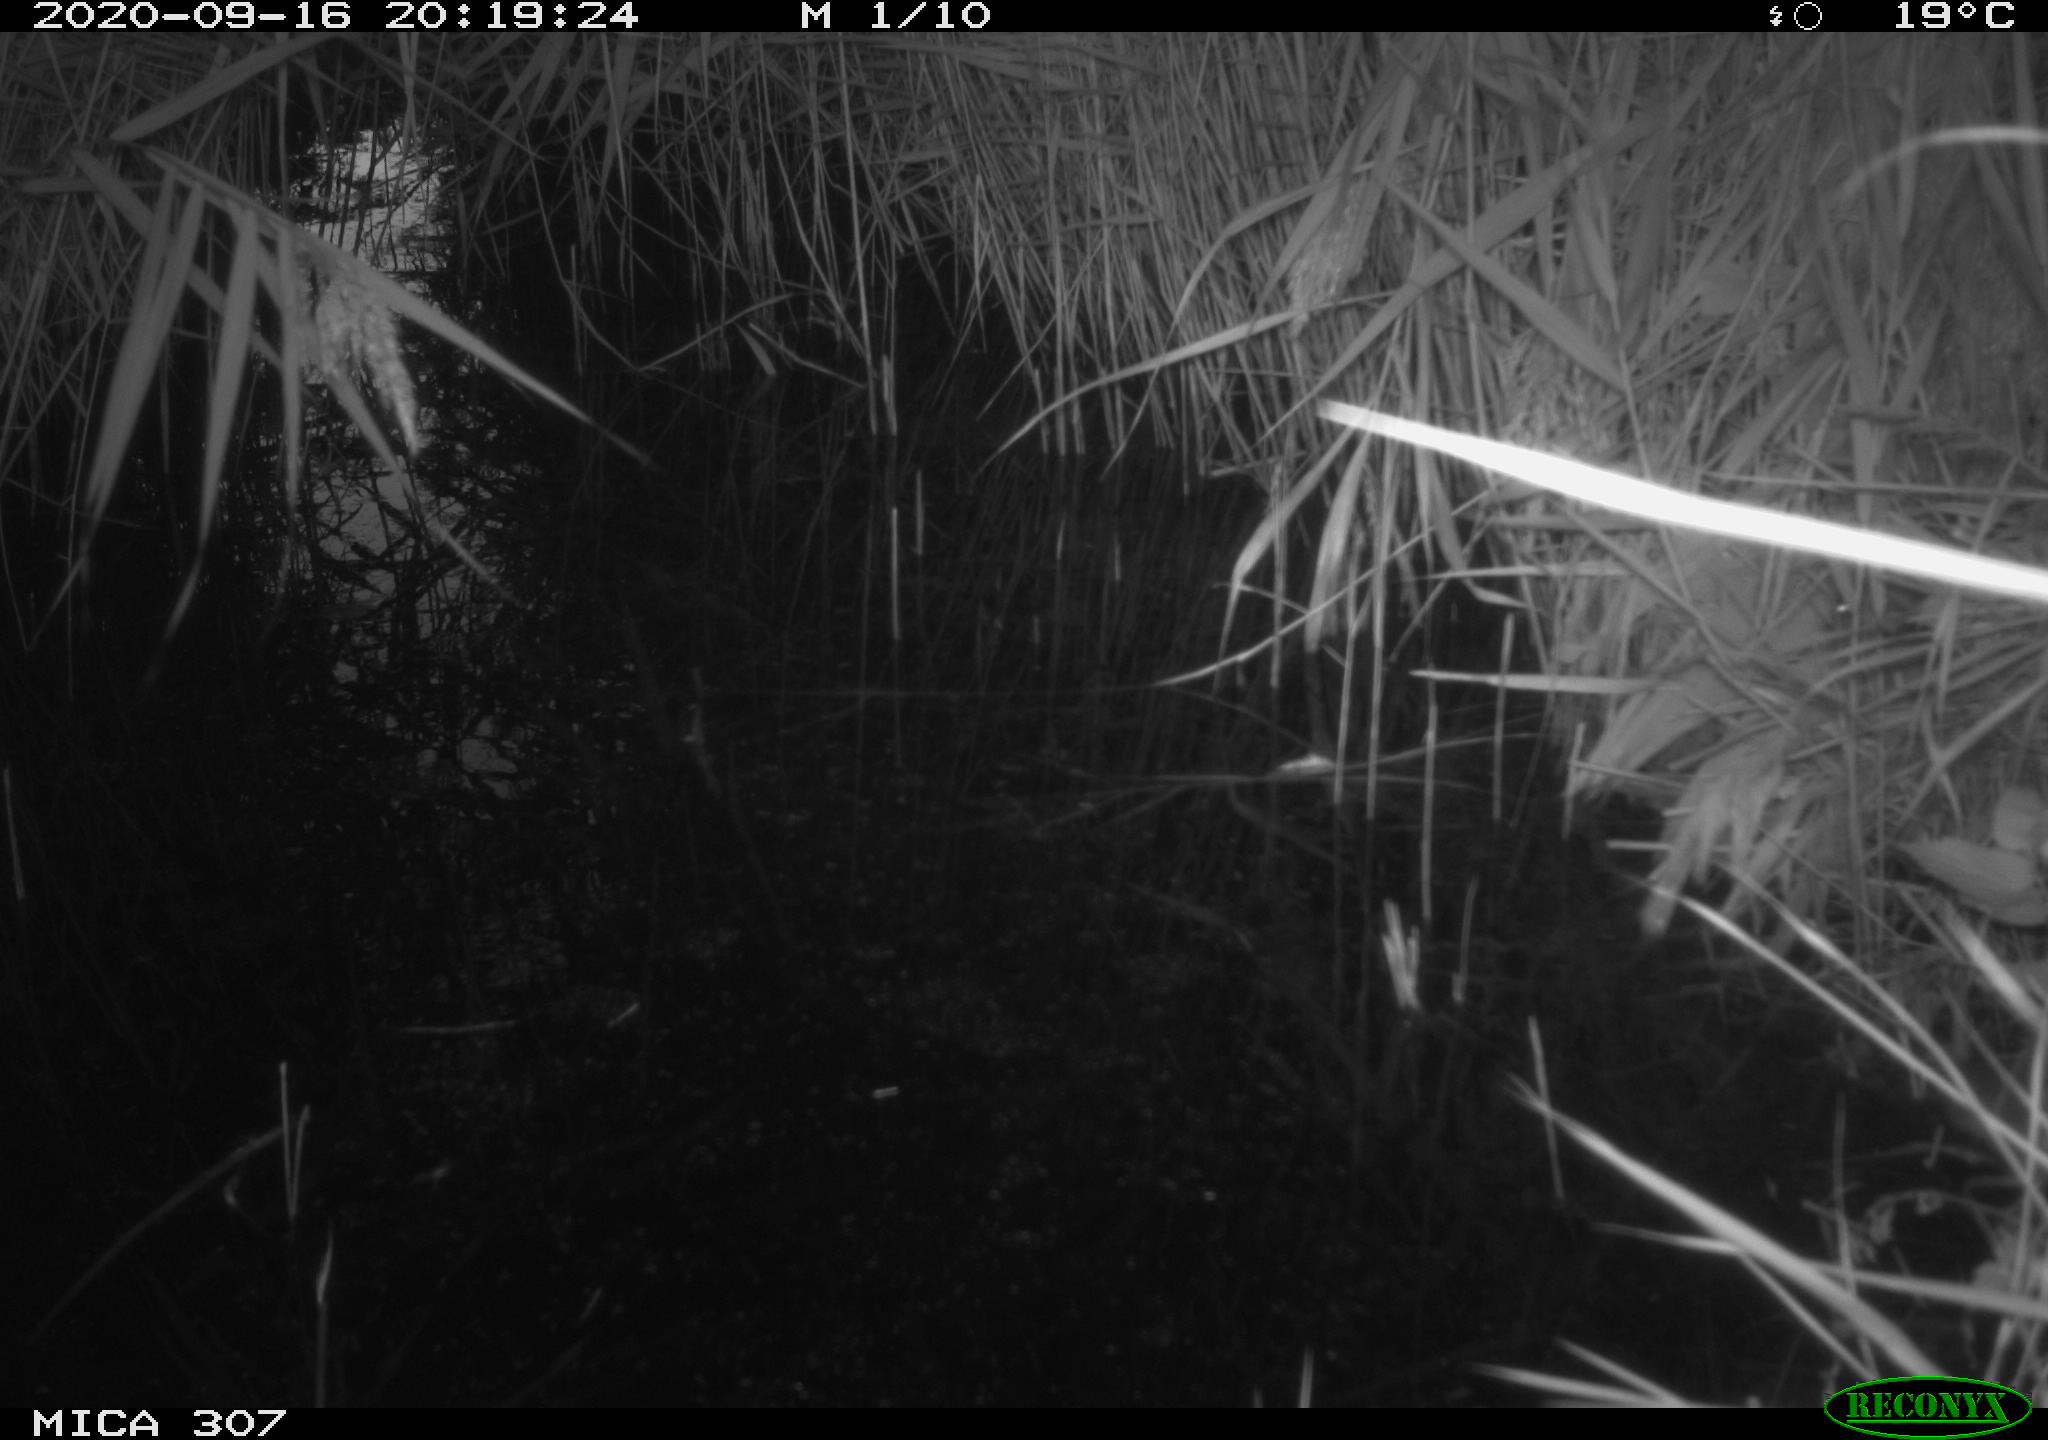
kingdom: Animalia
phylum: Chordata
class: Mammalia
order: Rodentia
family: Muridae
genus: Rattus
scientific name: Rattus norvegicus
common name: Brown rat
